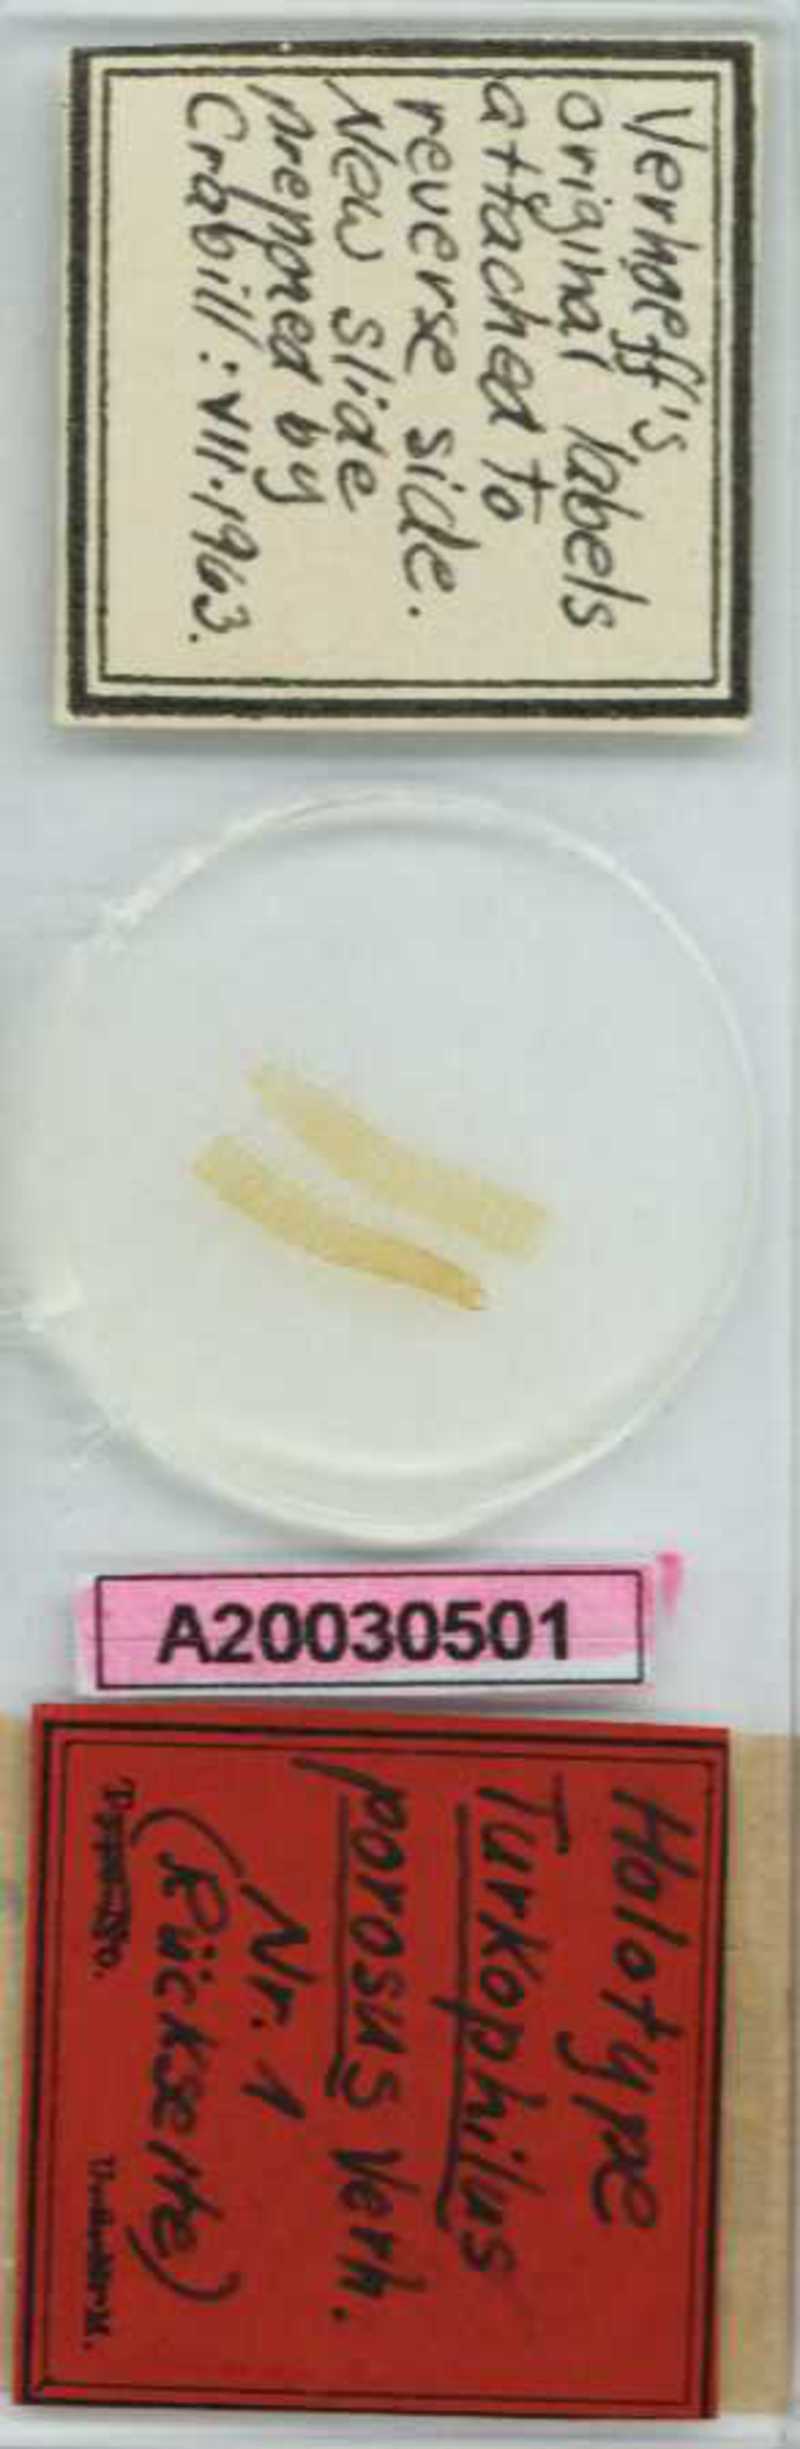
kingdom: Animalia
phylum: Arthropoda
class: Chilopoda
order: Geophilomorpha
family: Dignathodontidae
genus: Henia
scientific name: Henia porosa
